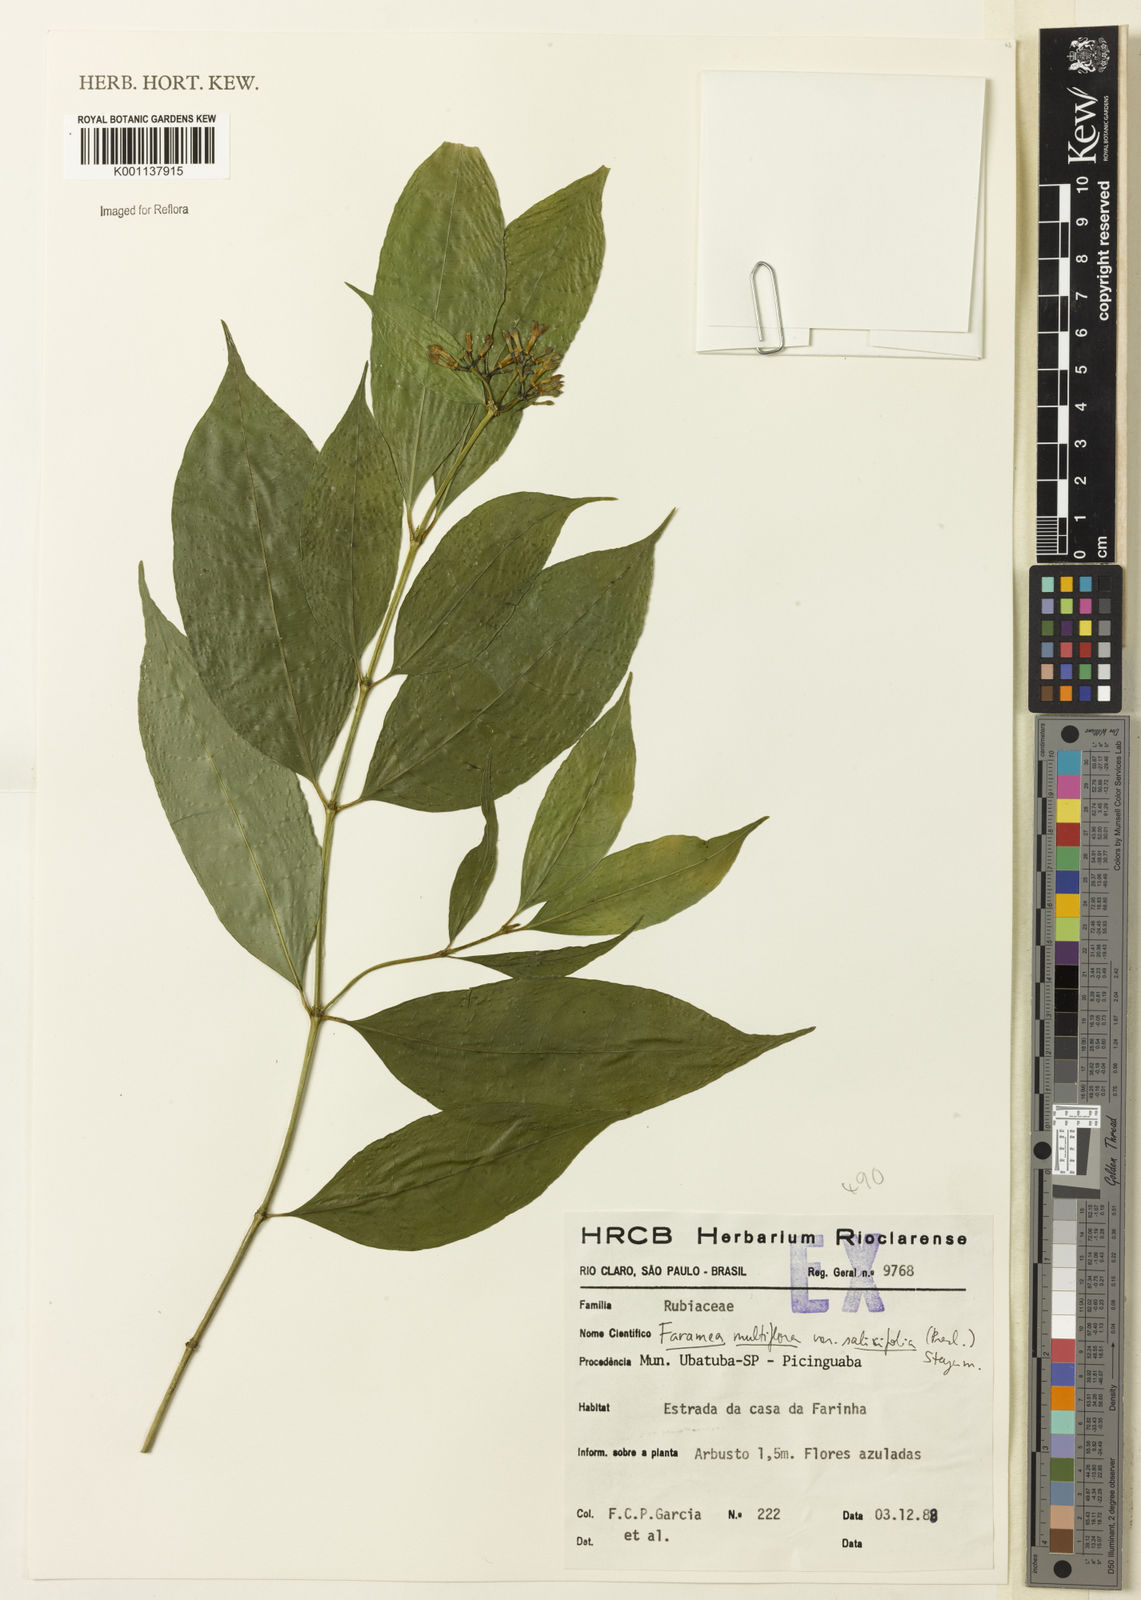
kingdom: Plantae
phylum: Tracheophyta
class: Magnoliopsida
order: Gentianales
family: Rubiaceae
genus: Faramea
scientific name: Faramea multiflora
